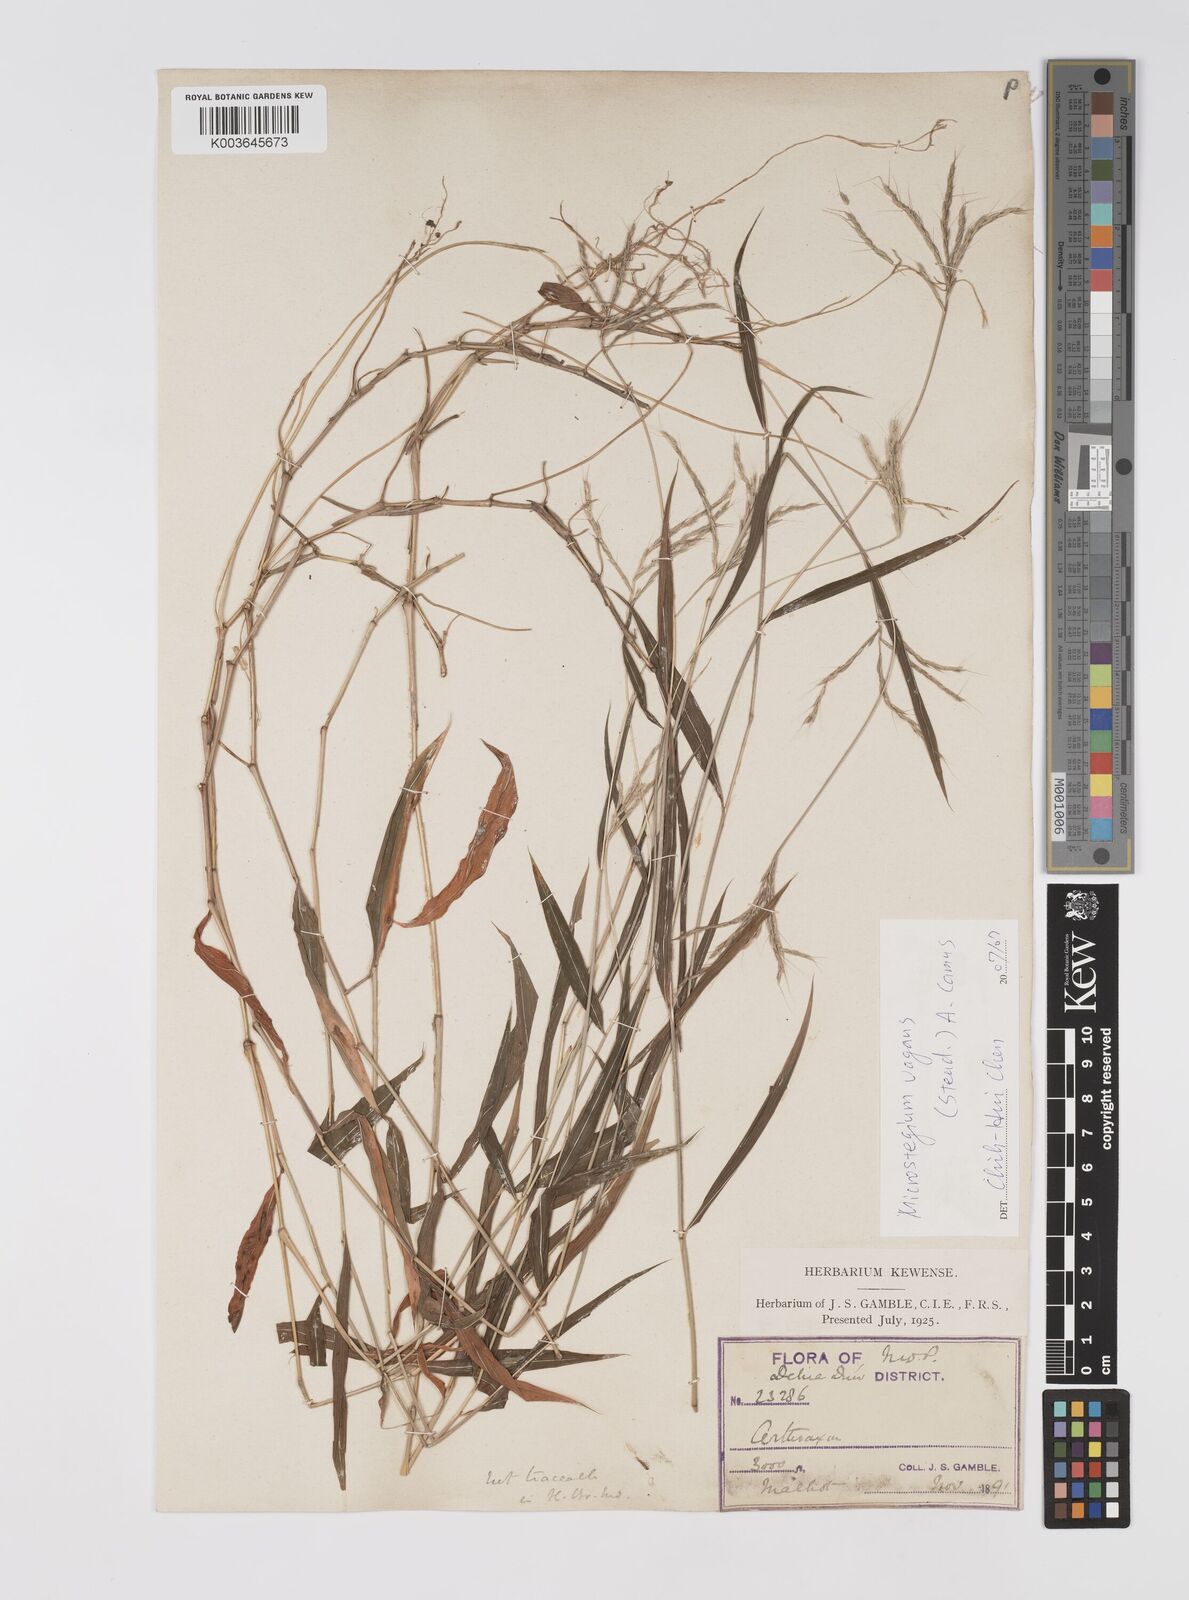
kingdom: Plantae
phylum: Tracheophyta
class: Liliopsida
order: Poales
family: Poaceae
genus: Microstegium
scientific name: Microstegium fasciculatum
